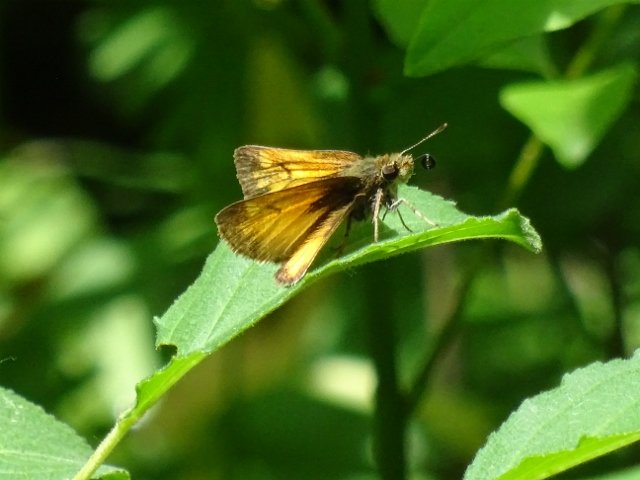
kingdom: Animalia
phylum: Arthropoda
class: Insecta
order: Lepidoptera
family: Hesperiidae
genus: Lon
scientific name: Lon hobomok
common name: Hobomok Skipper
